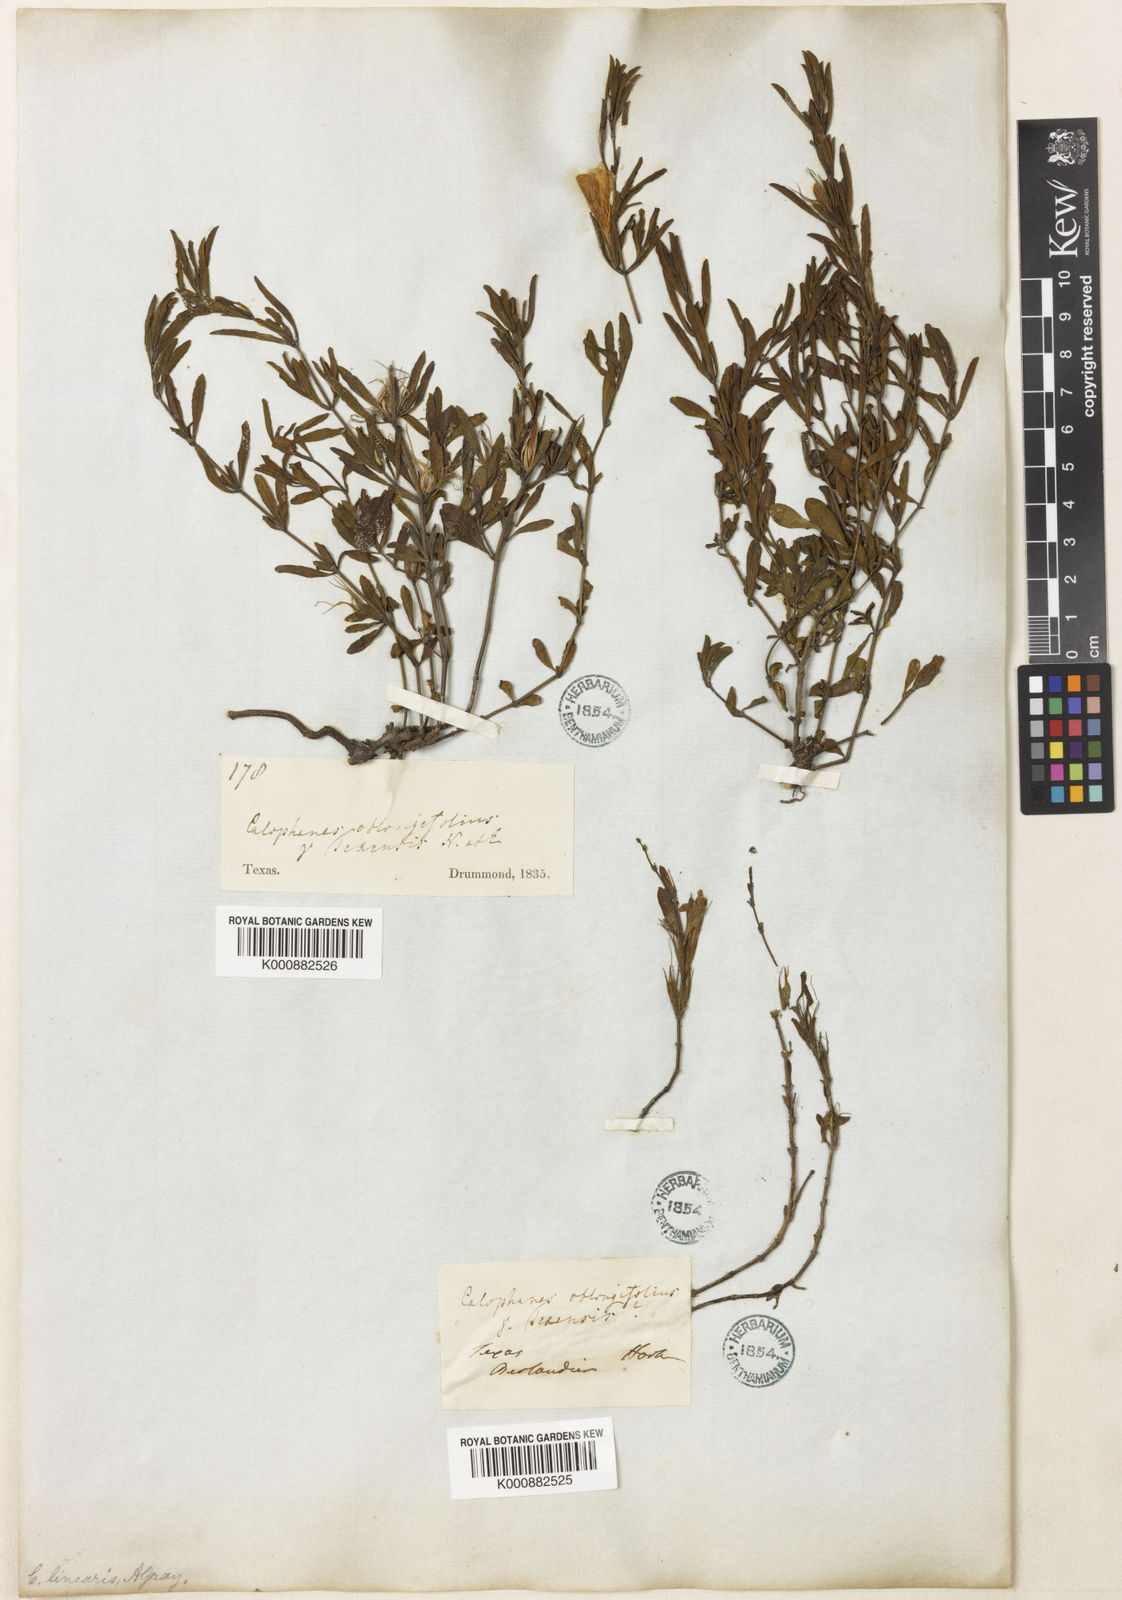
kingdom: Plantae
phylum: Tracheophyta
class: Magnoliopsida
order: Lamiales
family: Acanthaceae
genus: Dyschoriste
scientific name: Dyschoriste linearis
